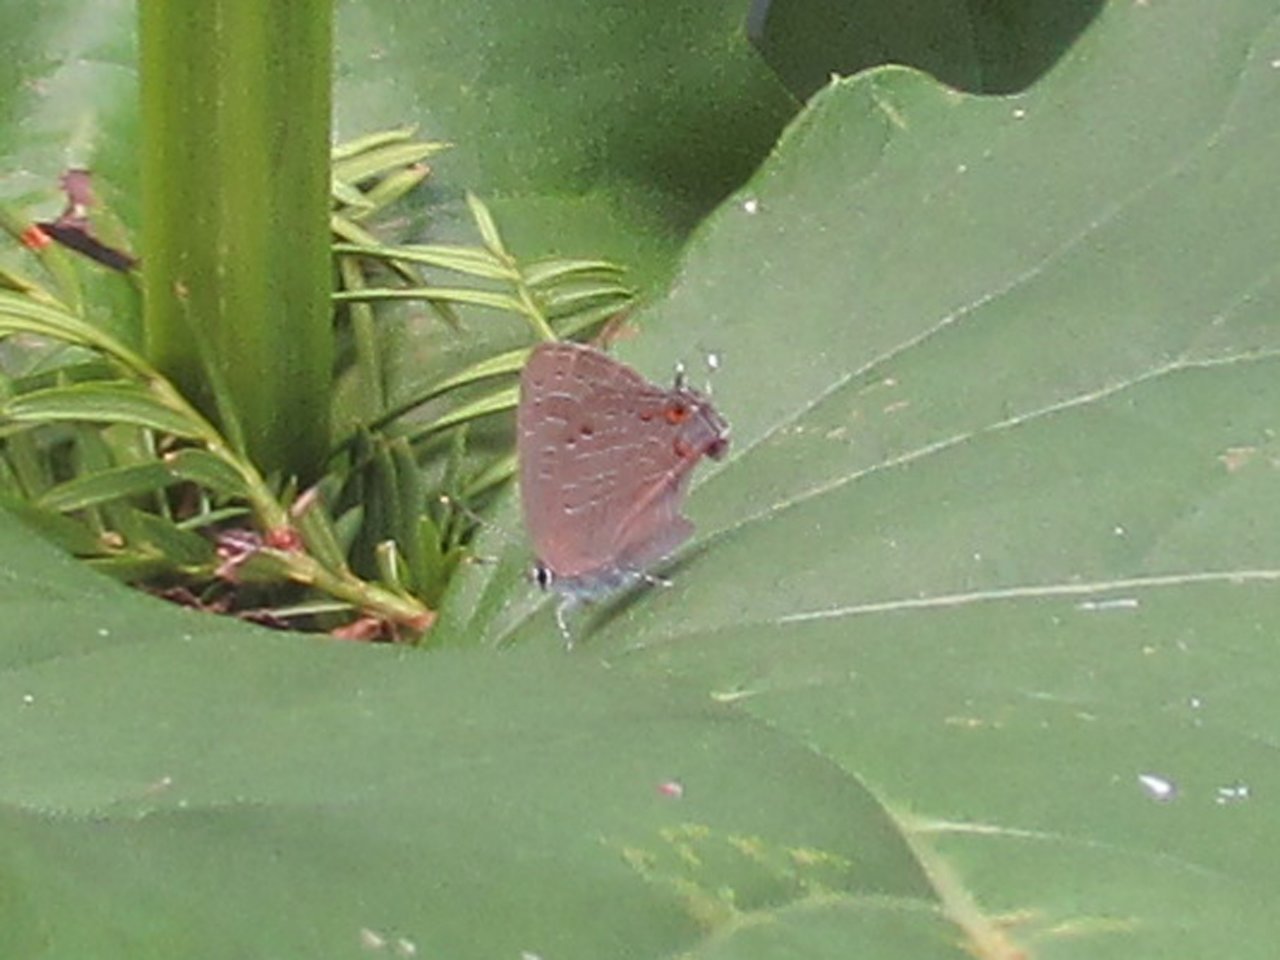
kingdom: Animalia
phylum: Arthropoda
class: Insecta
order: Lepidoptera
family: Lycaenidae
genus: Satyrium
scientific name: Satyrium liparops
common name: Striped Hairstreak
